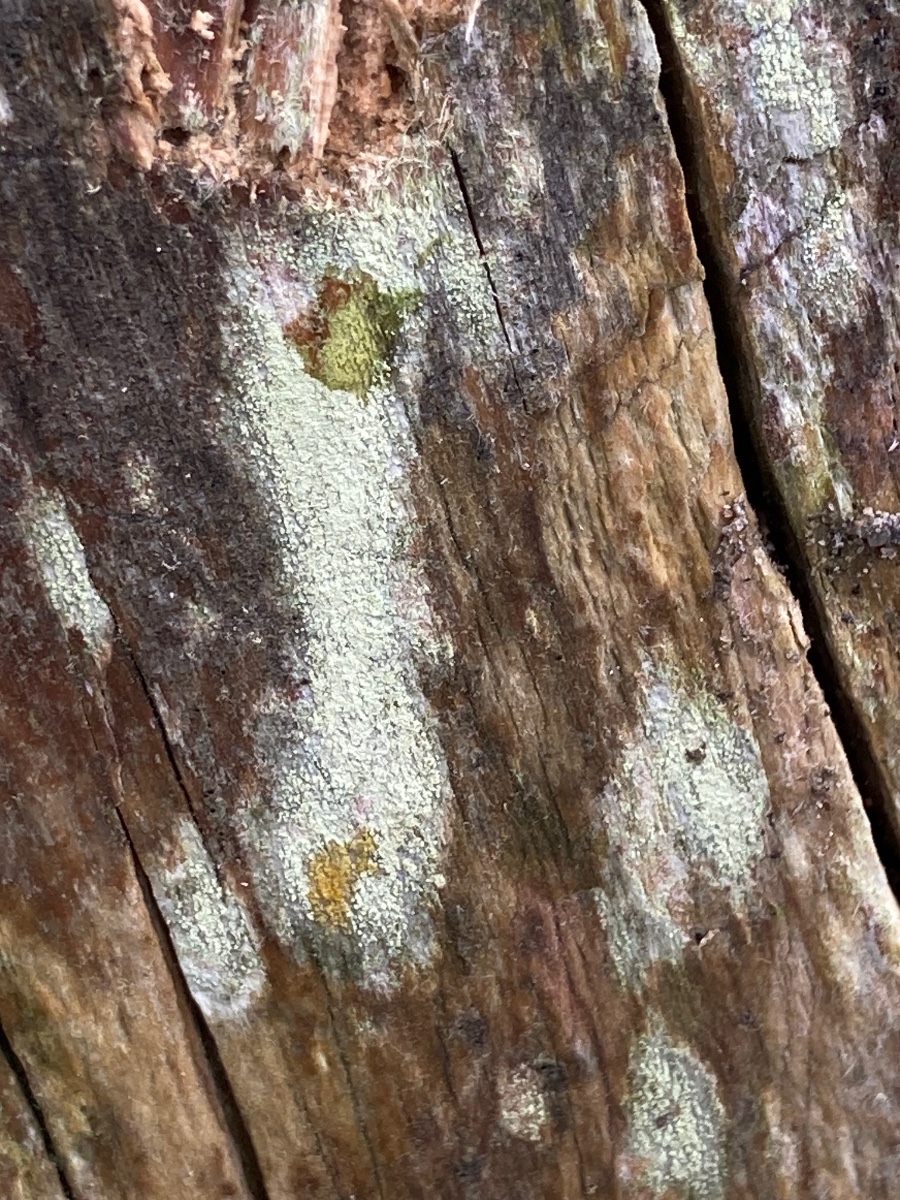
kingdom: Fungi
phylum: Ascomycota
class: Lecanoromycetes
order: Lecanorales
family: Lecanoraceae
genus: Lecanora
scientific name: Lecanora expallens
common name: bleggul kantskivelav
